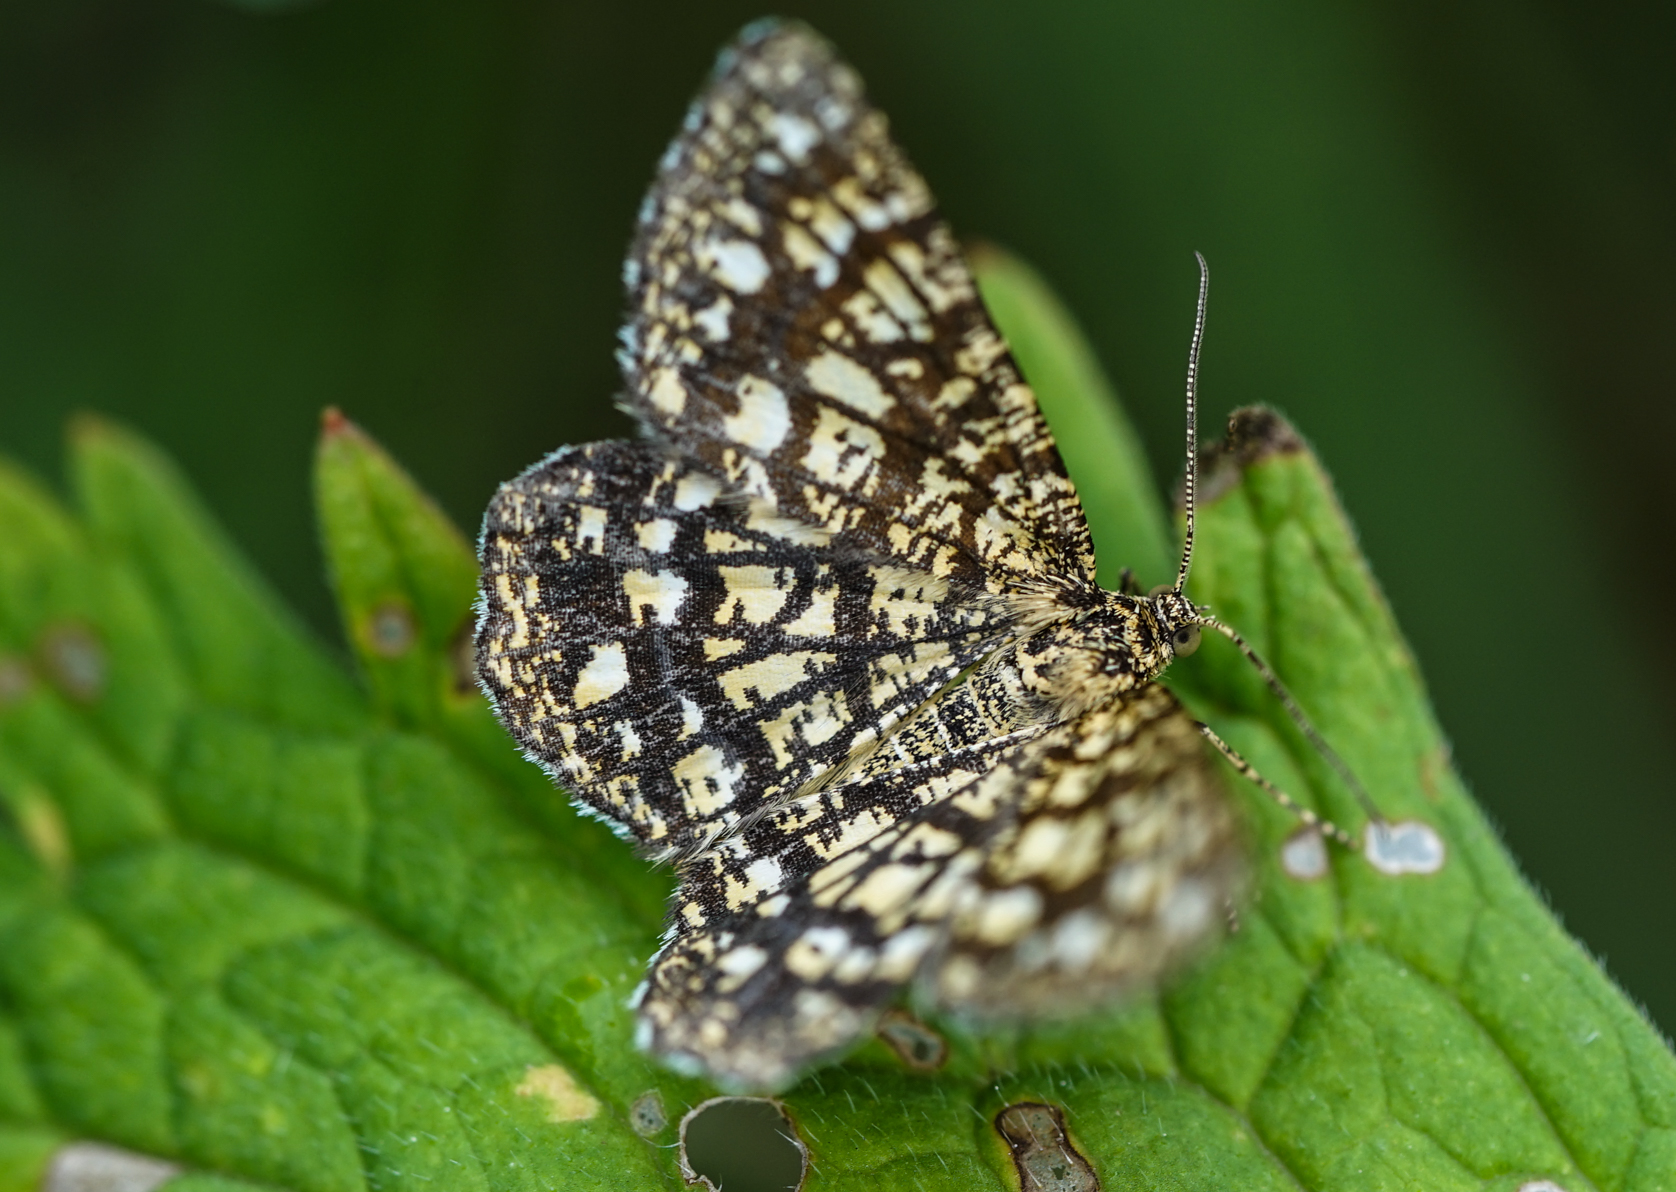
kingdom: Animalia
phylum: Arthropoda
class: Insecta
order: Lepidoptera
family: Geometridae
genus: Chiasmia
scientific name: Chiasmia clathrata
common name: Latticed heath
